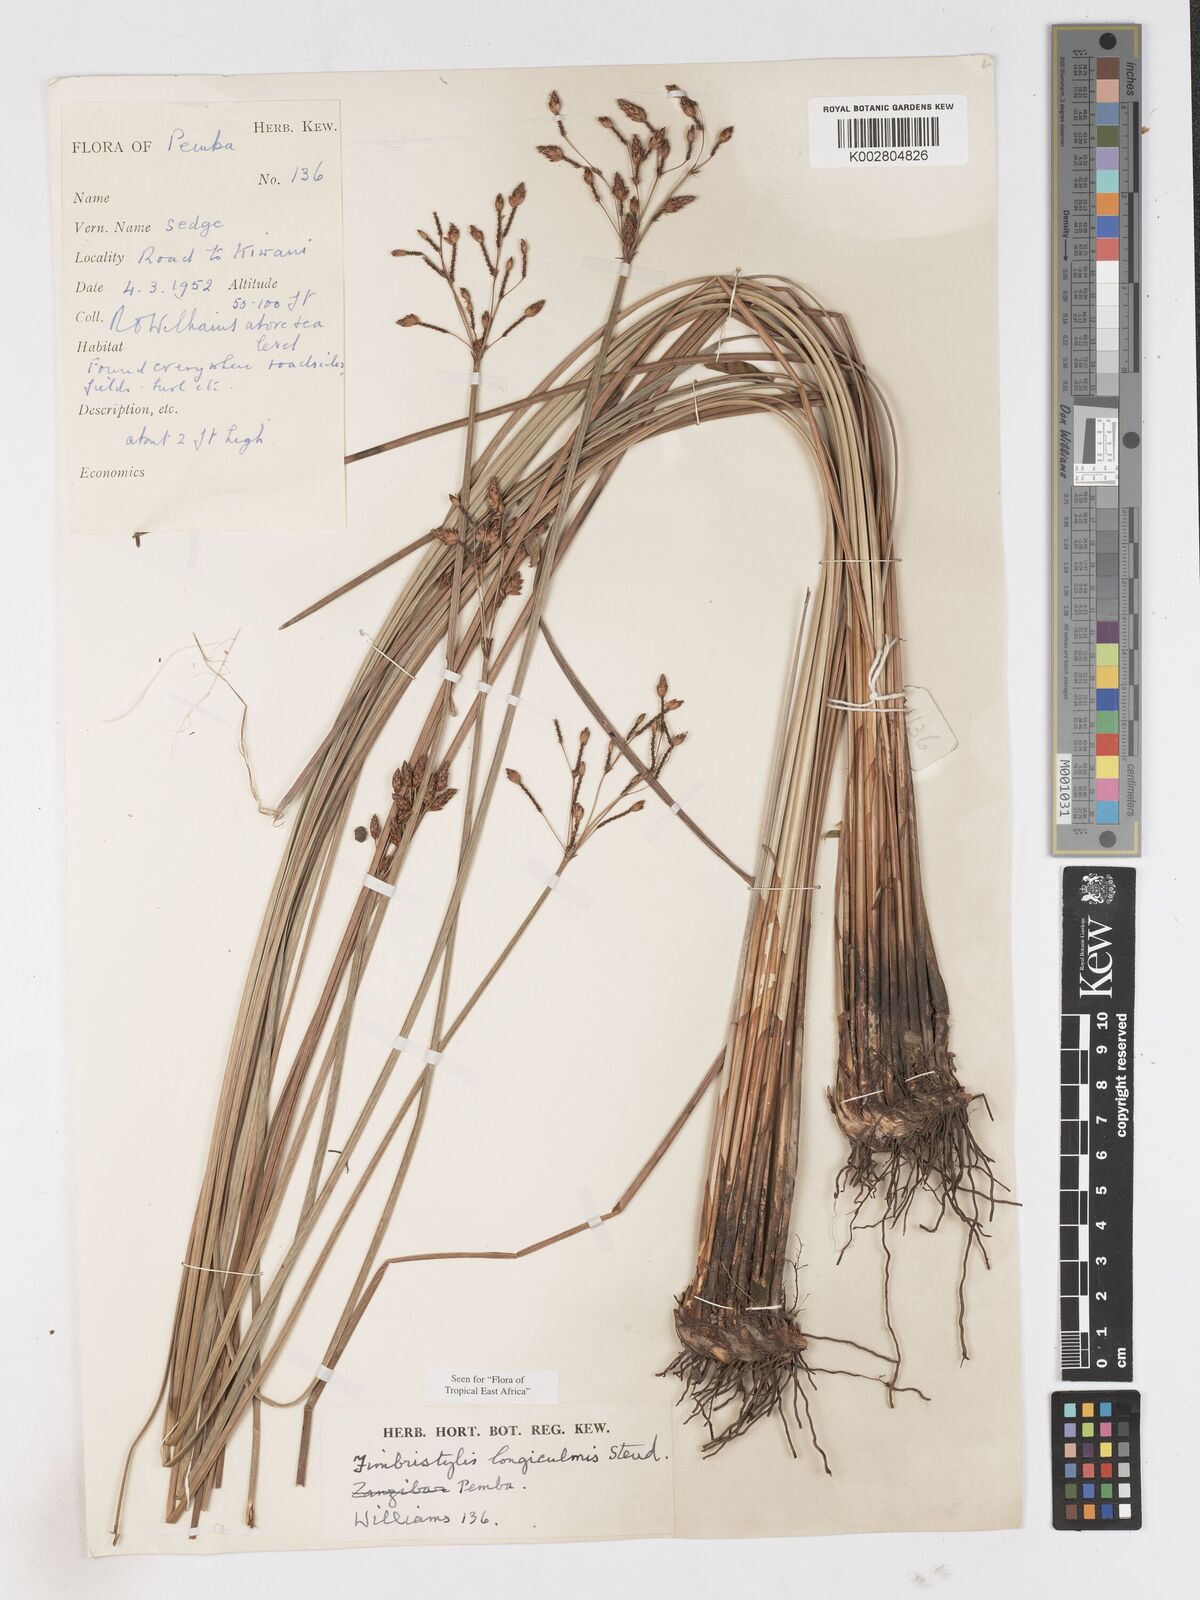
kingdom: Plantae
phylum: Tracheophyta
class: Liliopsida
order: Poales
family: Cyperaceae
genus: Fimbristylis
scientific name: Fimbristylis longispica
